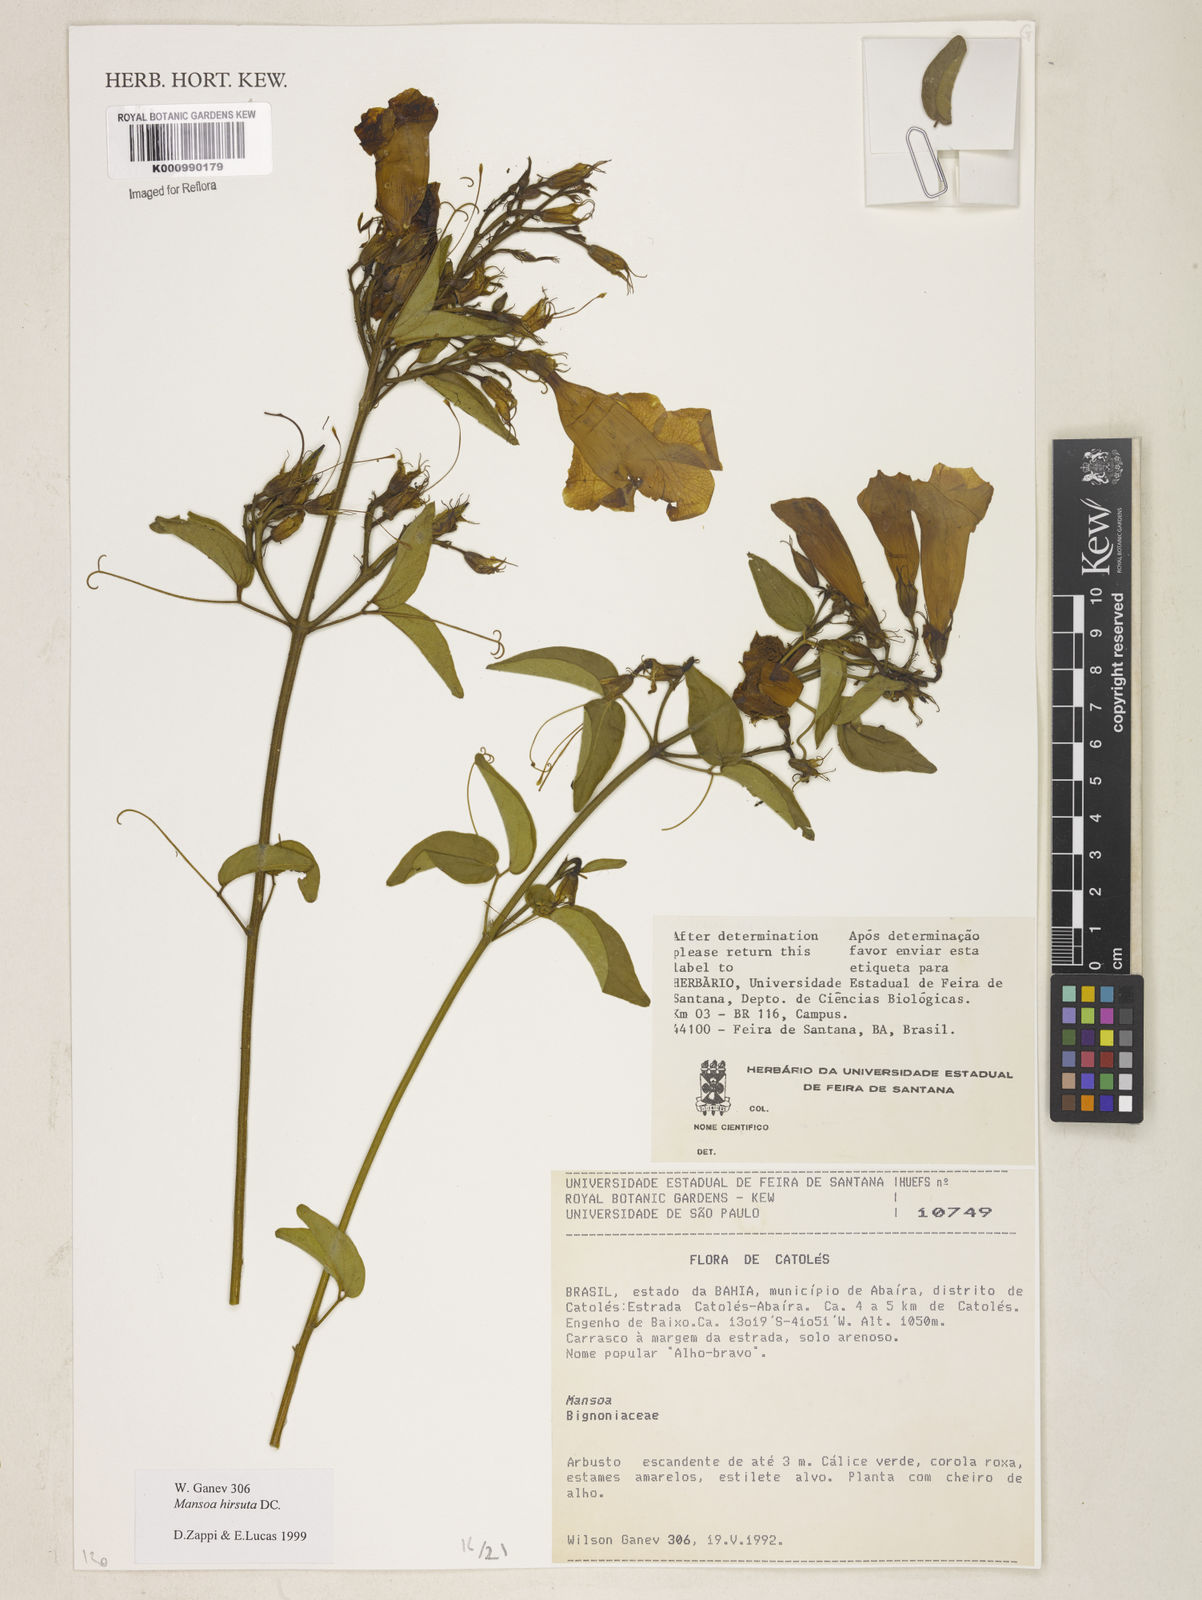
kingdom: Plantae
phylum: Tracheophyta
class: Magnoliopsida
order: Lamiales
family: Bignoniaceae
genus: Mansoa
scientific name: Mansoa hirsuta
